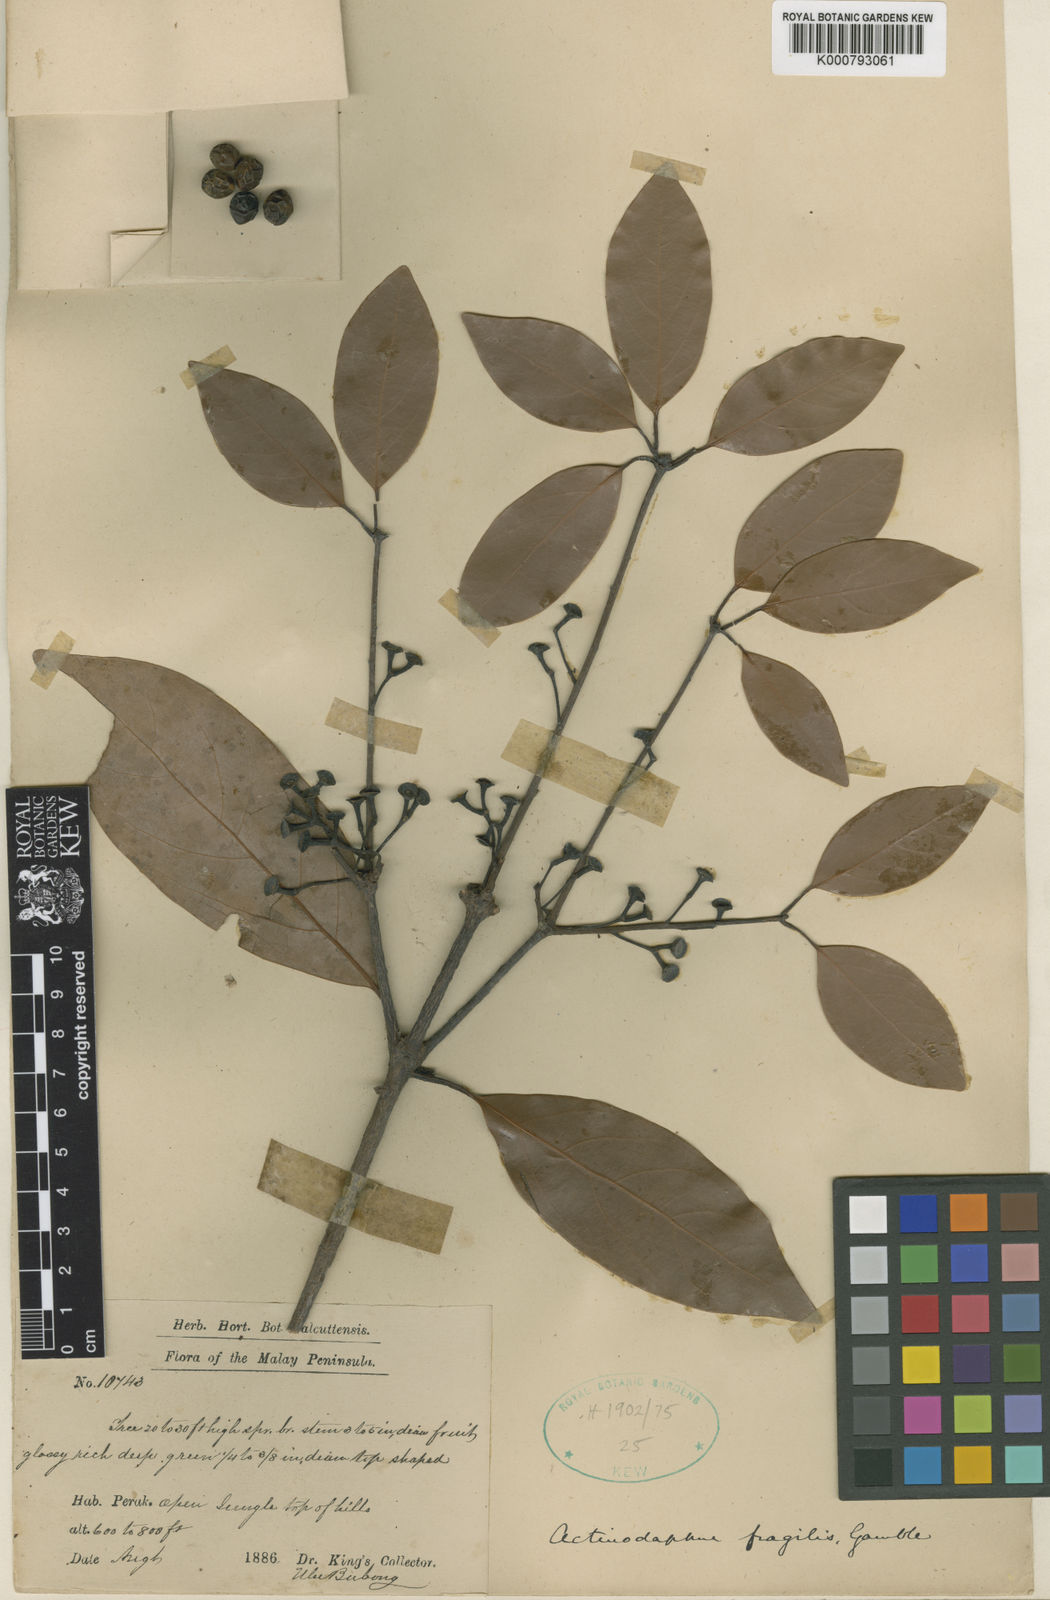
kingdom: Plantae
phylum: Tracheophyta
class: Magnoliopsida
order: Laurales
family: Lauraceae
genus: Actinodaphne
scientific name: Actinodaphne fragilis
